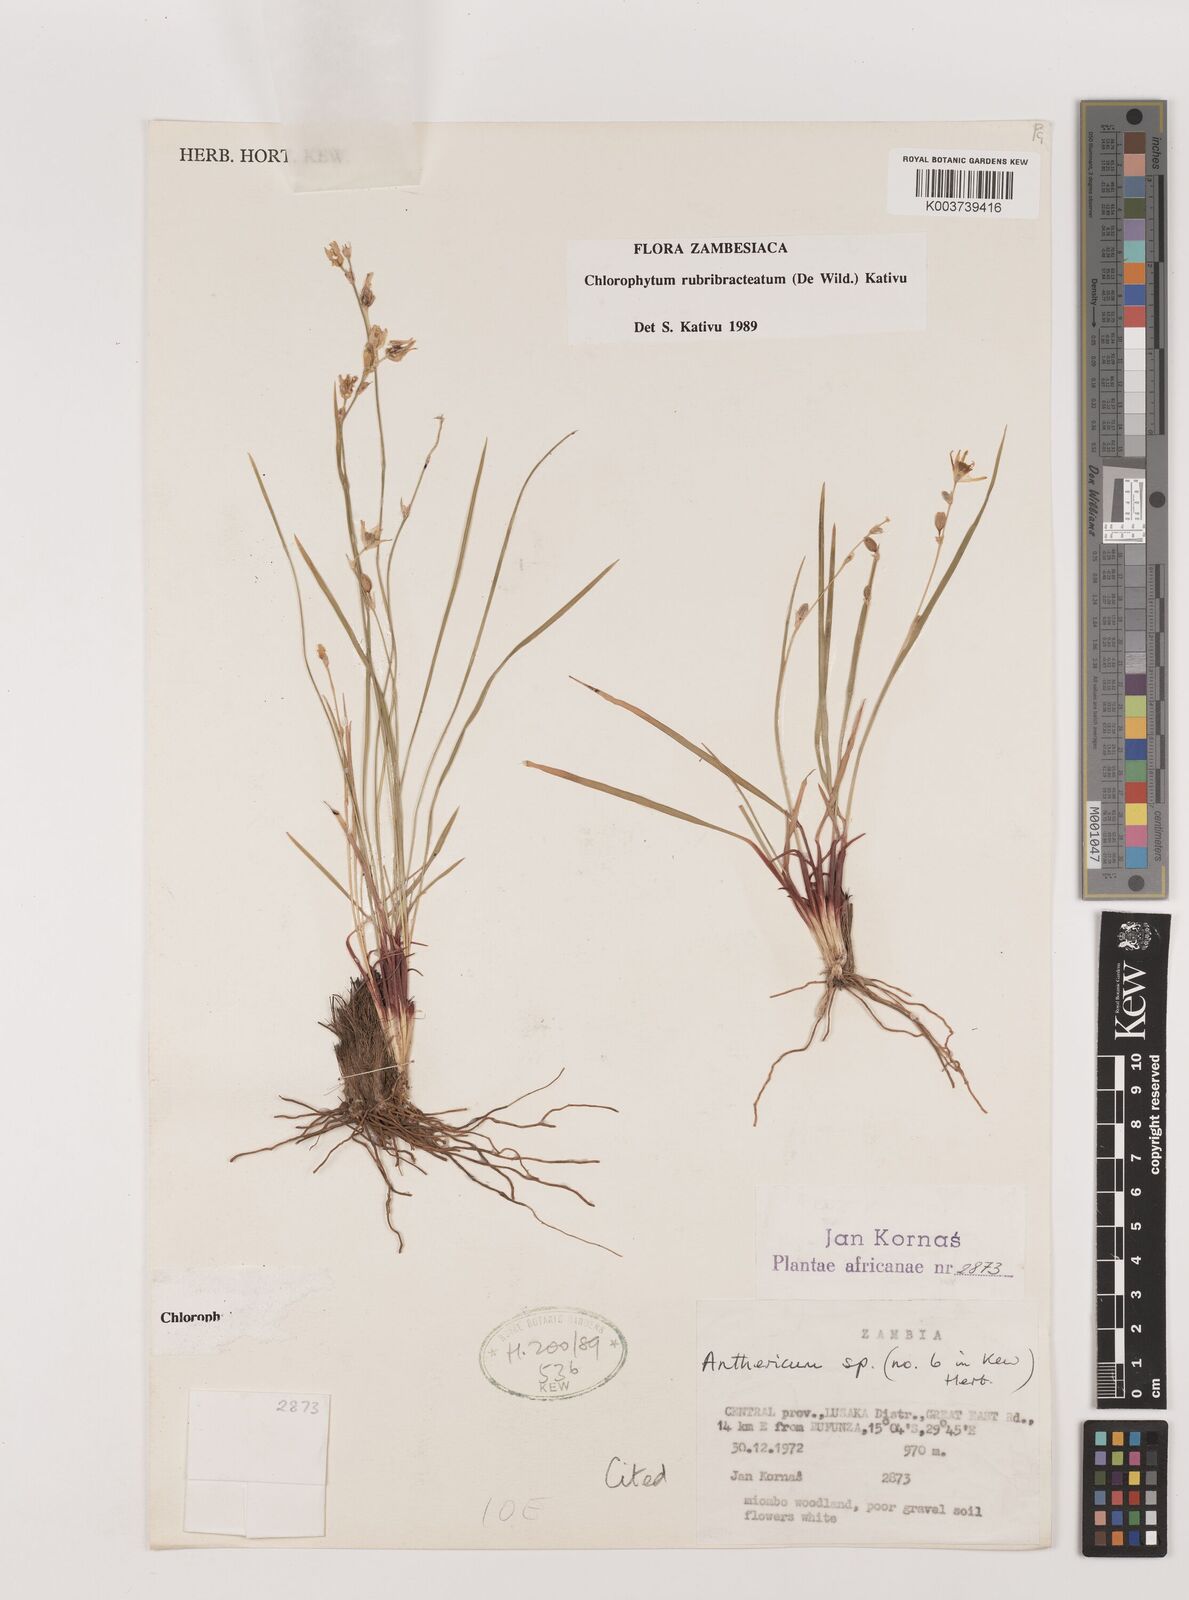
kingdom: Plantae
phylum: Tracheophyta
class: Liliopsida
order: Asparagales
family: Asparagaceae
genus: Chlorophytum
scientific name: Chlorophytum rubribracteatum
